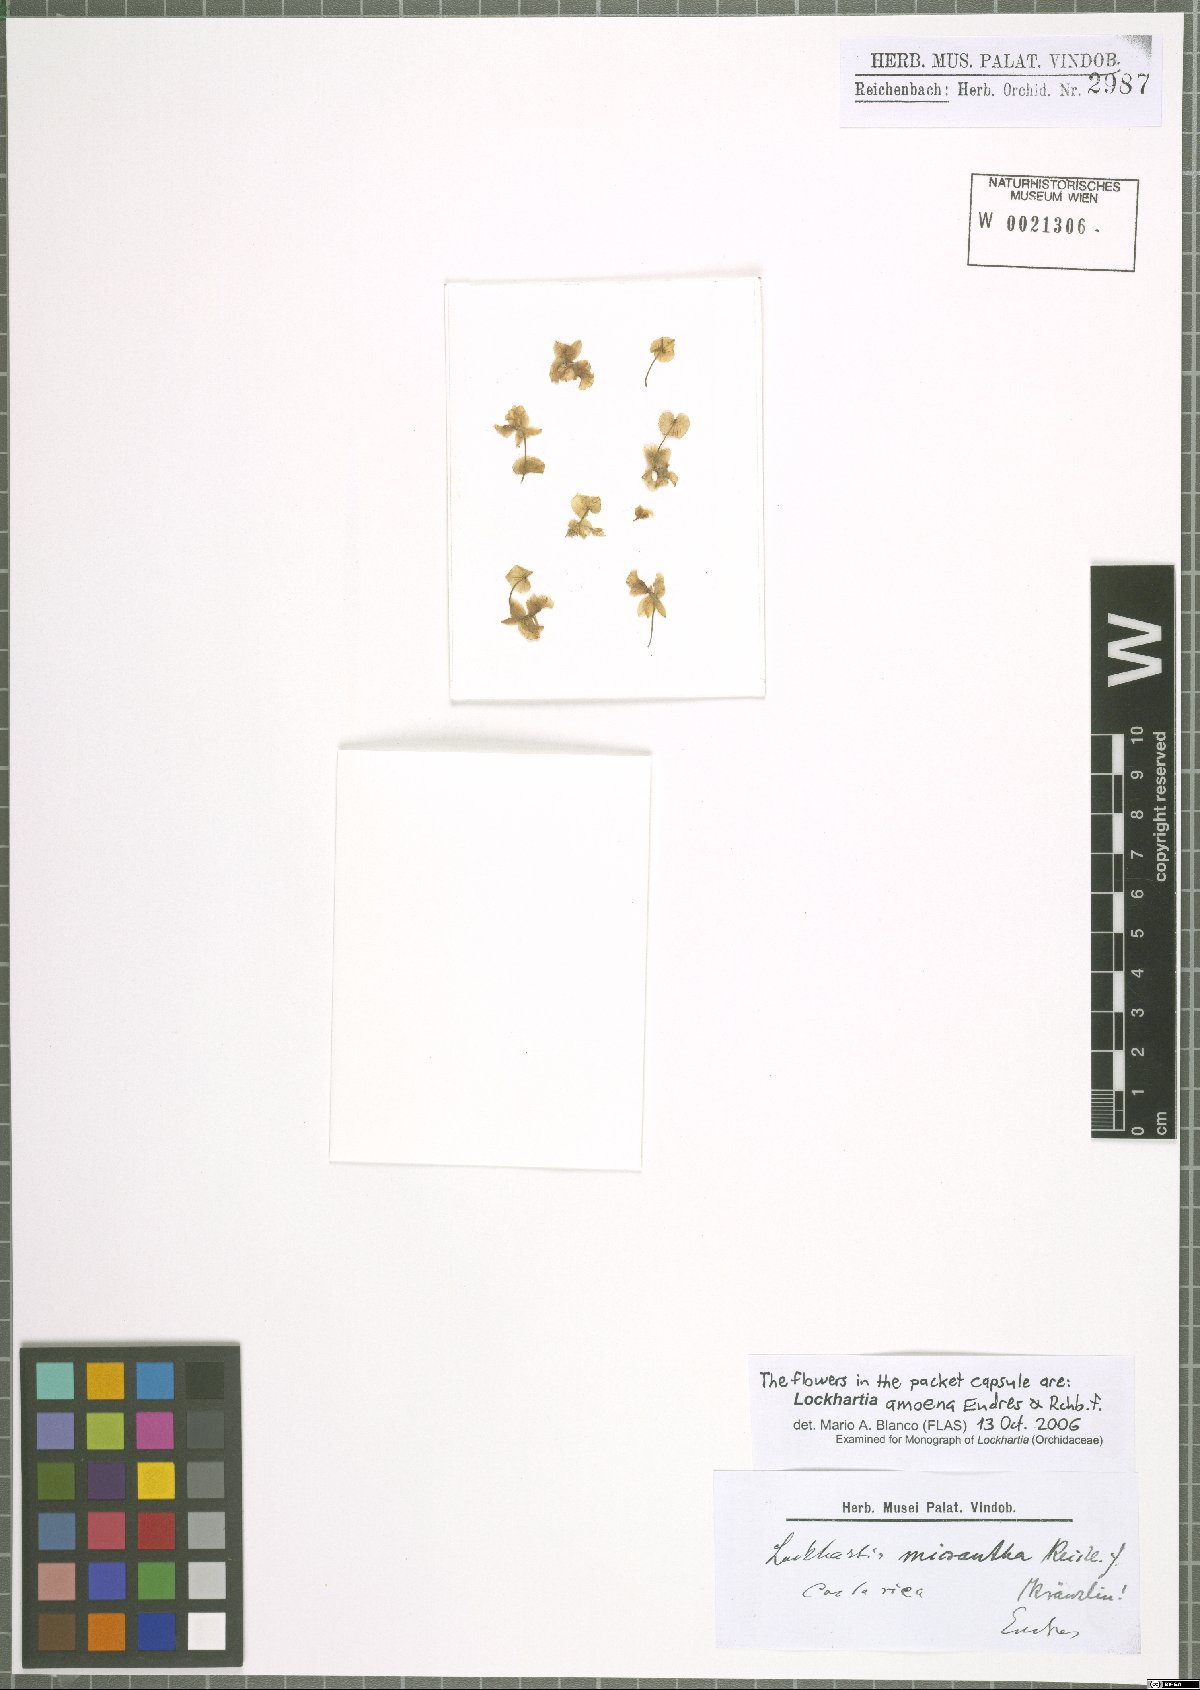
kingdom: Plantae
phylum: Tracheophyta
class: Liliopsida
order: Asparagales
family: Orchidaceae
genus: Lockhartia
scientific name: Lockhartia amoena
